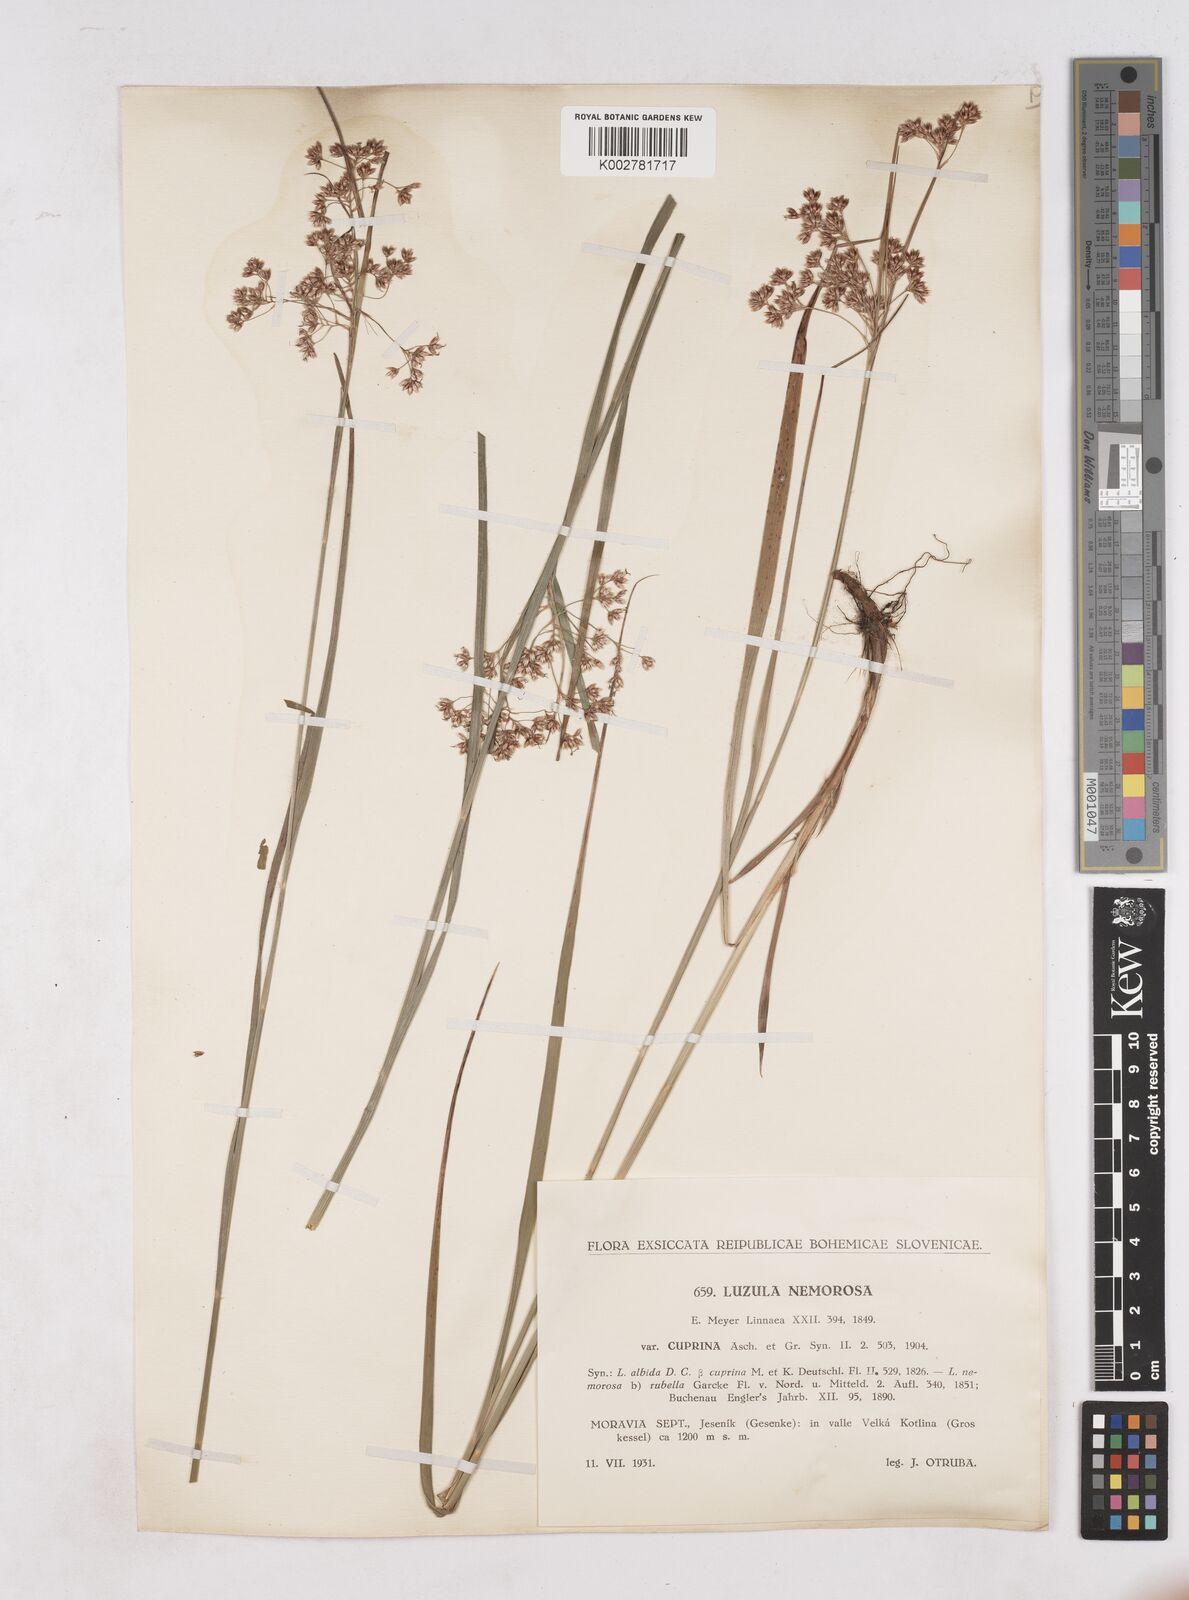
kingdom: Plantae
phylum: Tracheophyta
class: Liliopsida
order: Poales
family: Juncaceae
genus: Luzula
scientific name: Luzula luzuloides
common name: White wood-rush
